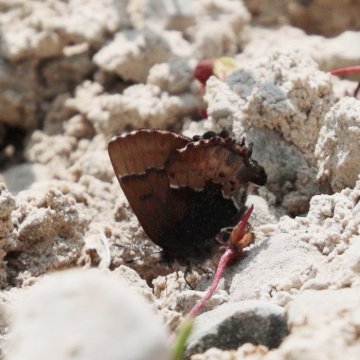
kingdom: Animalia
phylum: Arthropoda
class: Insecta
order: Lepidoptera
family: Lycaenidae
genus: Incisalia
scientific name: Incisalia henrici
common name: Henry's Elfin
